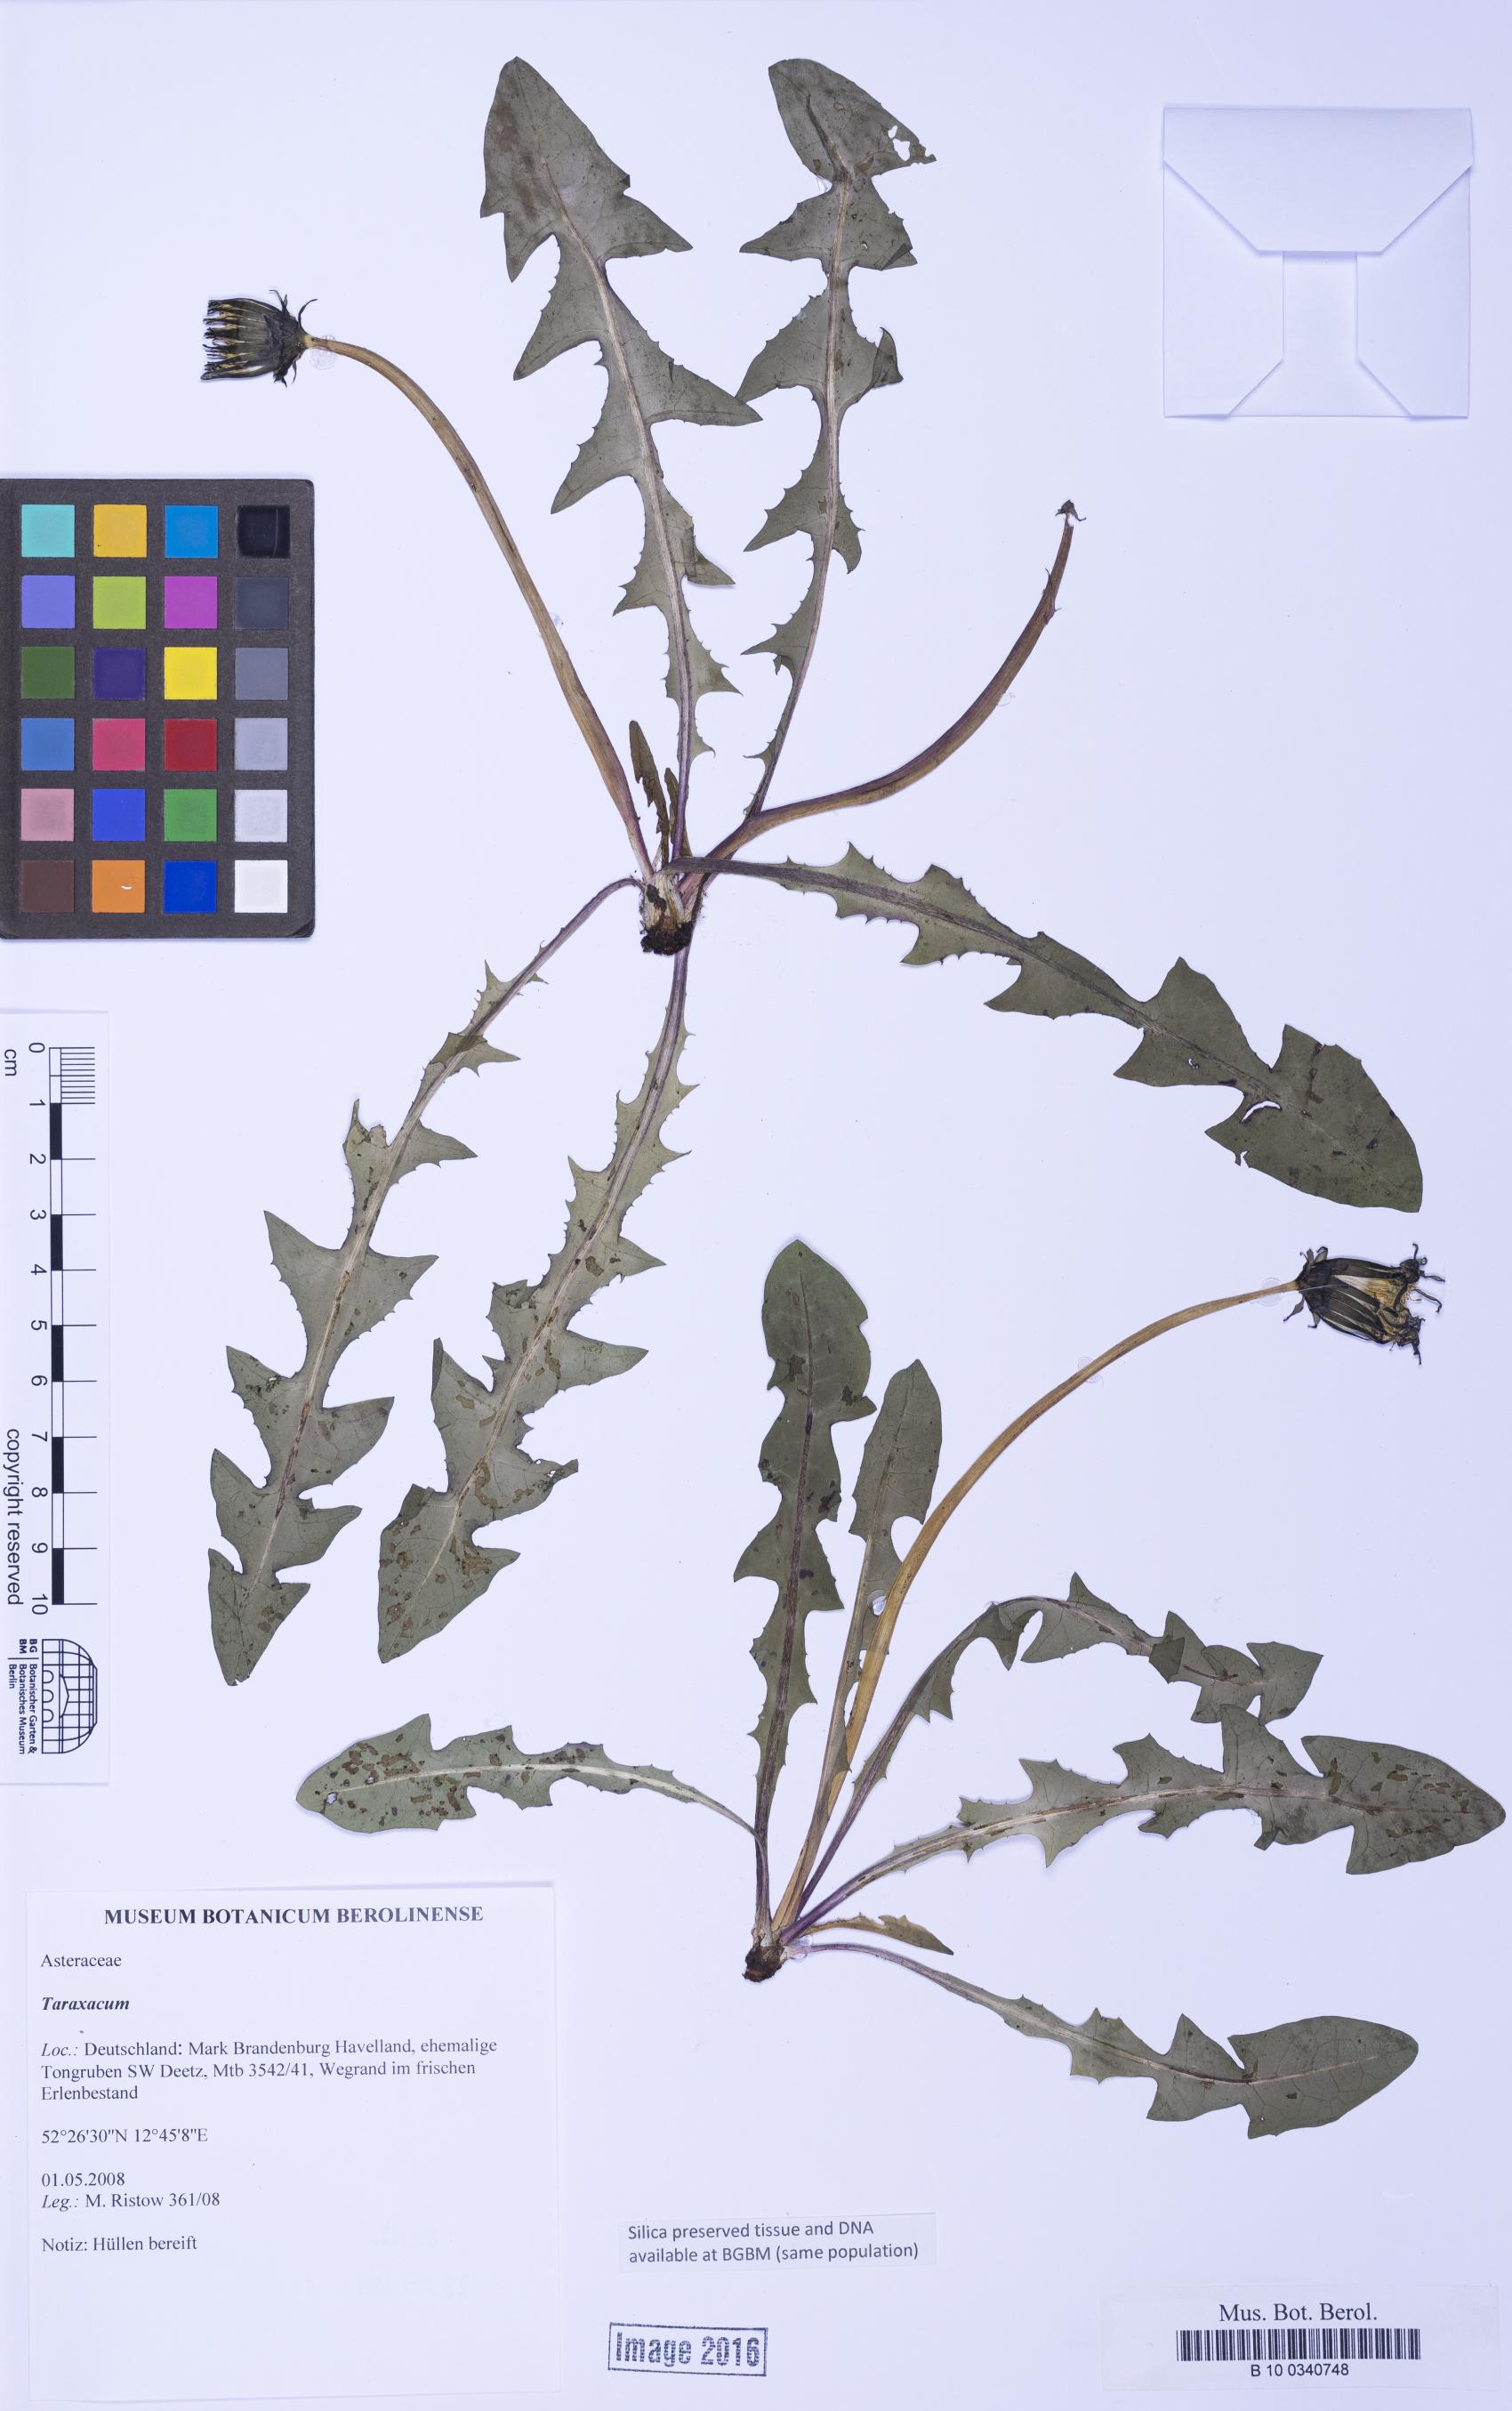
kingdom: Plantae
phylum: Tracheophyta
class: Magnoliopsida
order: Asterales
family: Asteraceae
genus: Taraxacum
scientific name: Taraxacum
